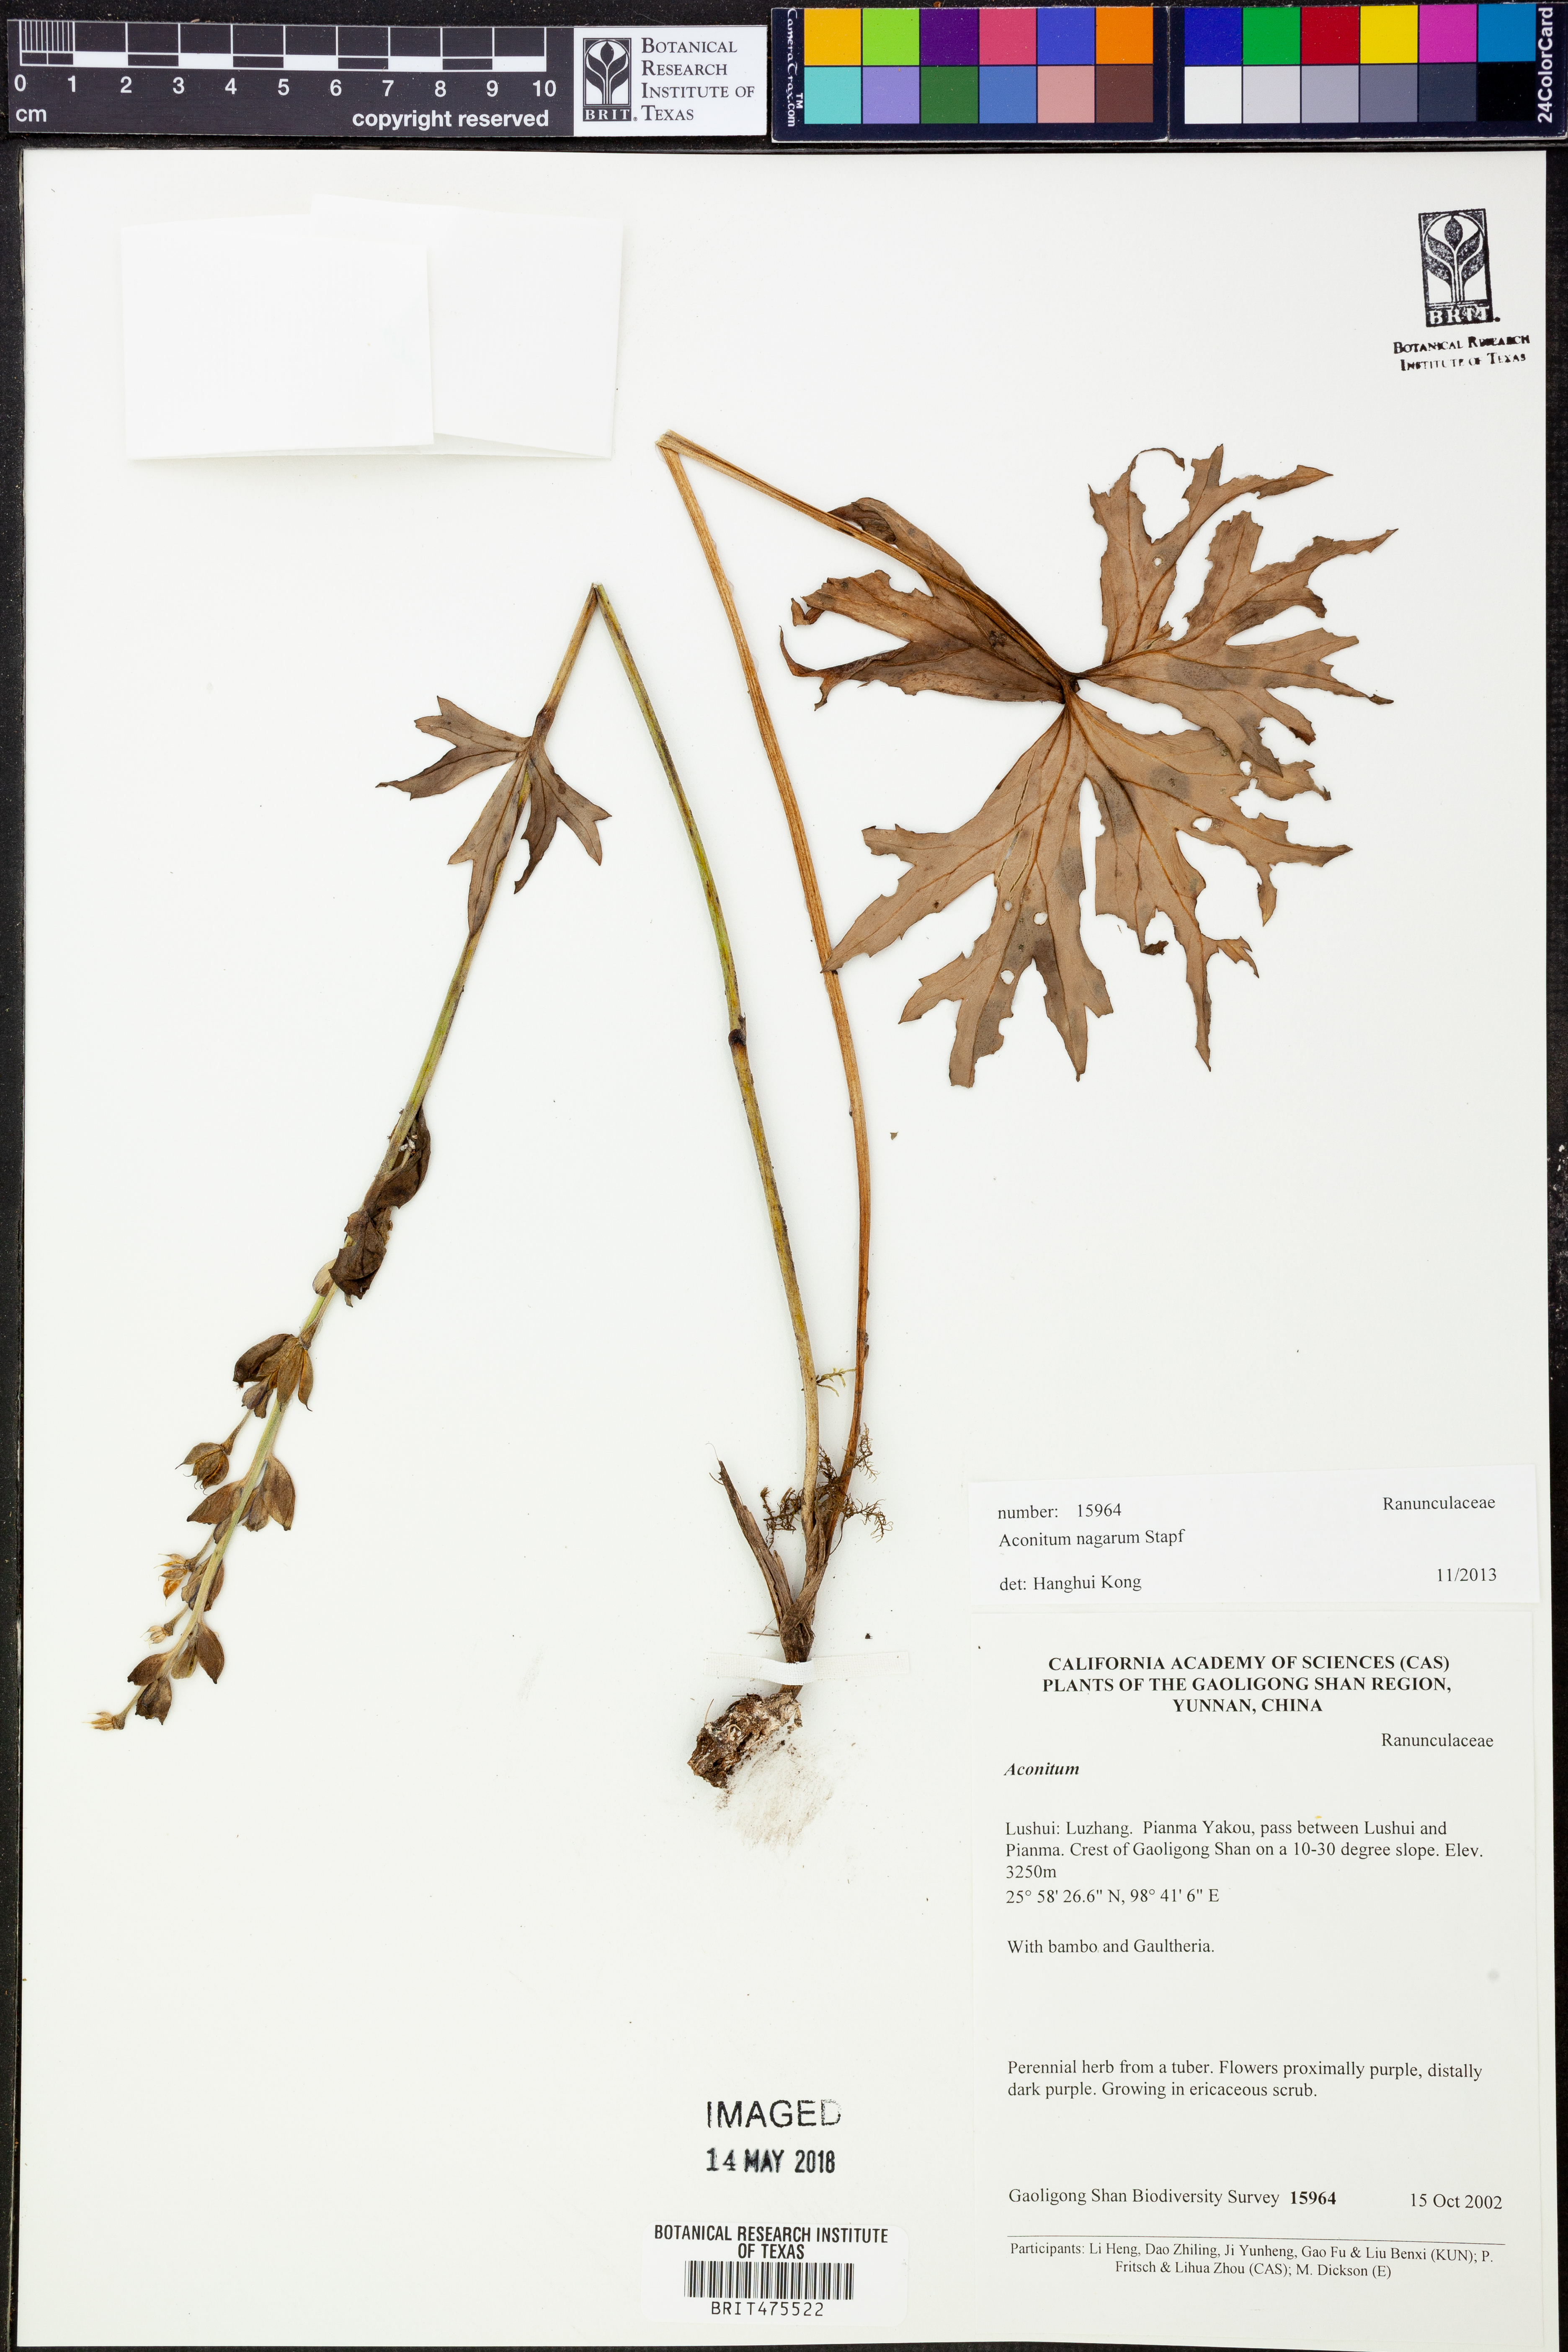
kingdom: Plantae
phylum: Tracheophyta
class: Magnoliopsida
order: Ranunculales
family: Ranunculaceae
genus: Aconitum
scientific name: Aconitum nagarum
